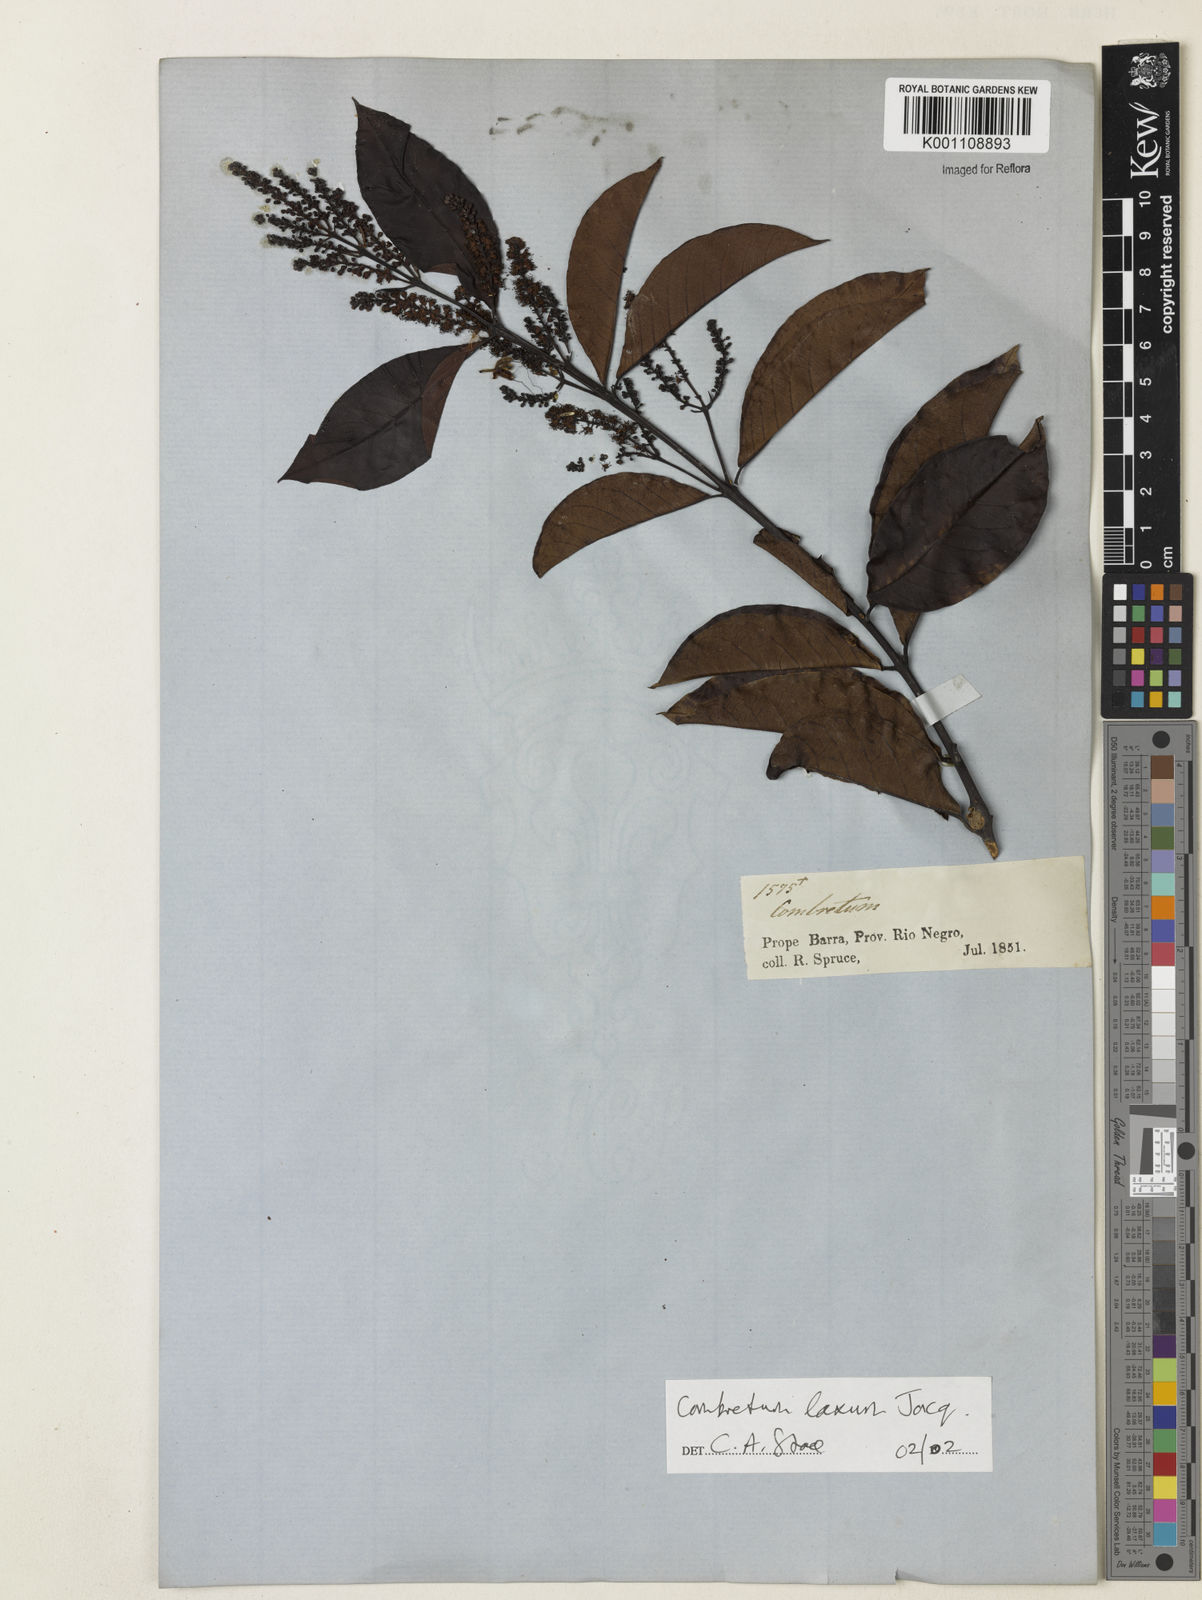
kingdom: Plantae
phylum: Tracheophyta
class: Magnoliopsida
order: Myrtales
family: Combretaceae
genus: Combretum
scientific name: Combretum laxum
